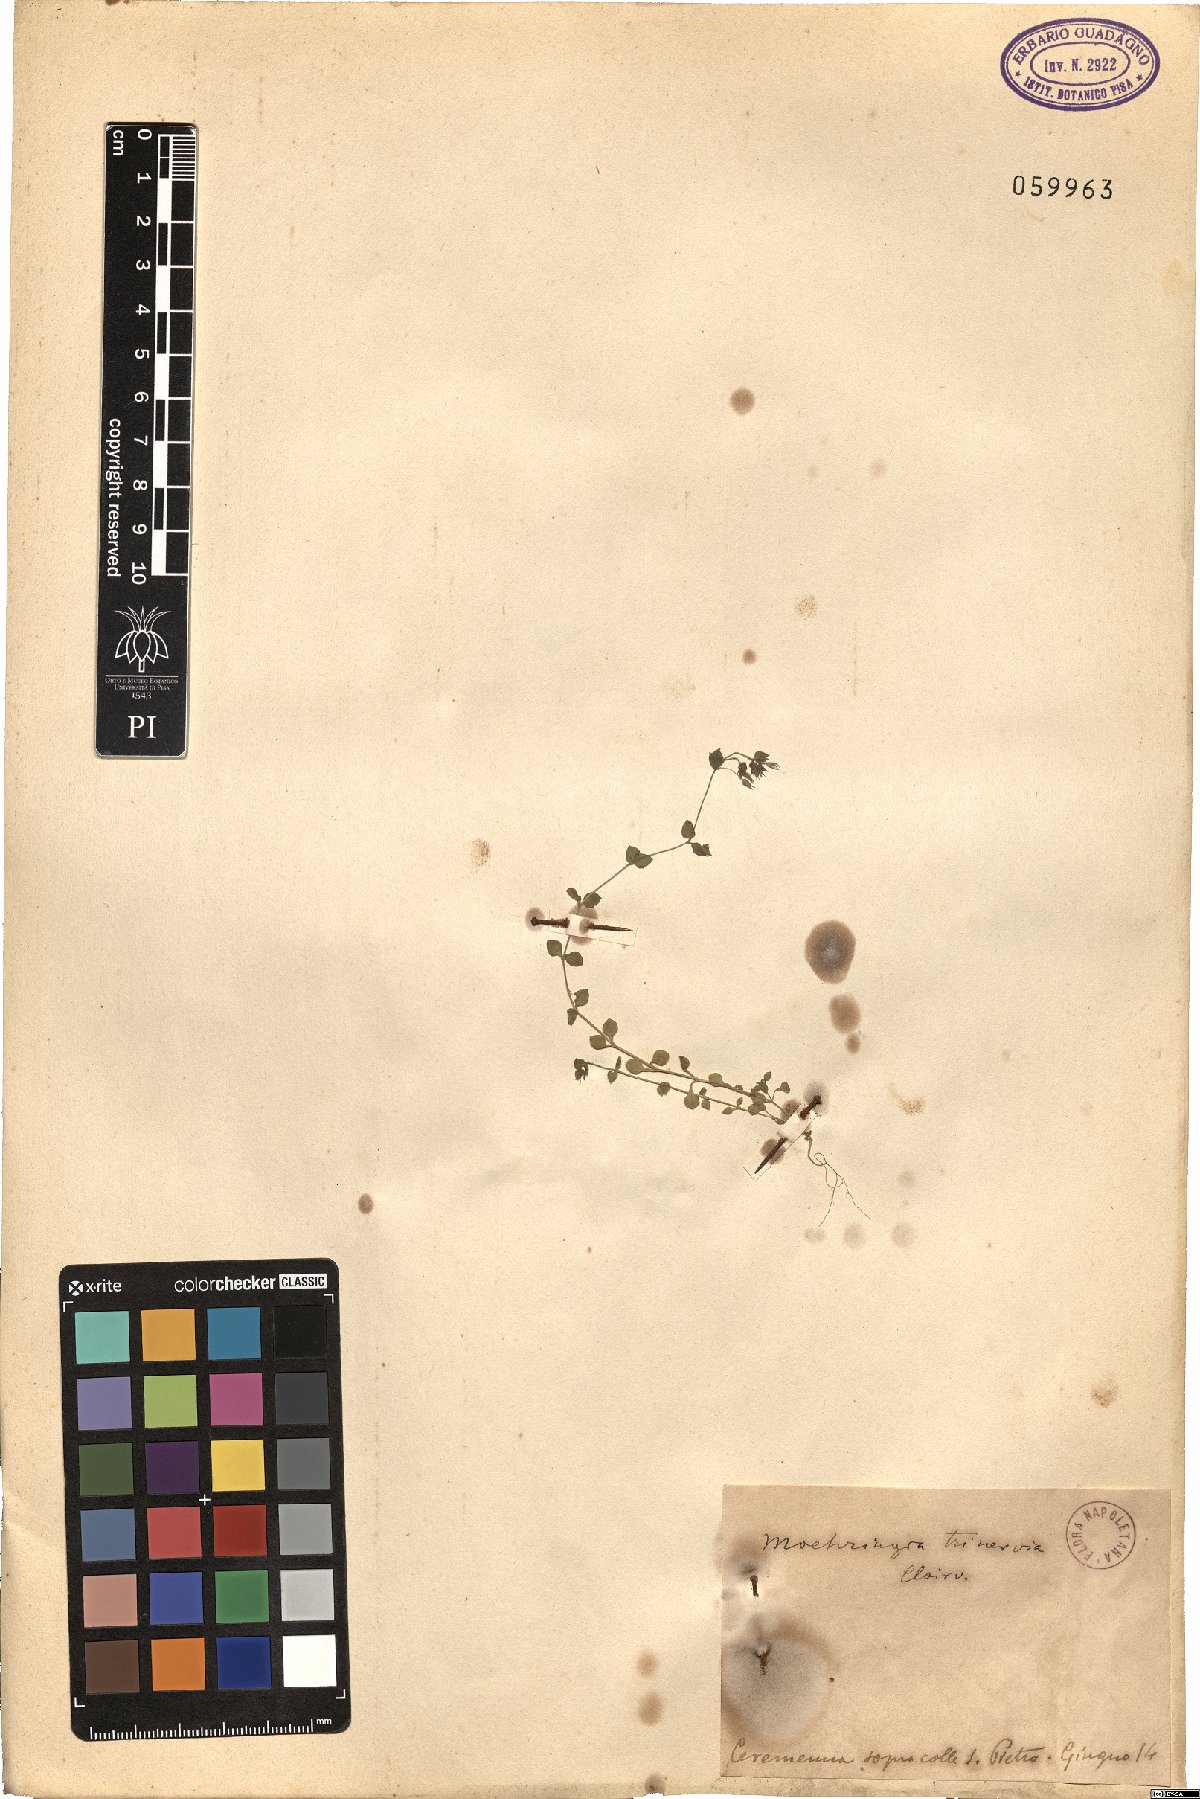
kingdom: Plantae
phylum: Tracheophyta
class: Magnoliopsida
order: Caryophyllales
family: Caryophyllaceae
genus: Moehringia
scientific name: Moehringia trinervia
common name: Three-nerved sandwort
